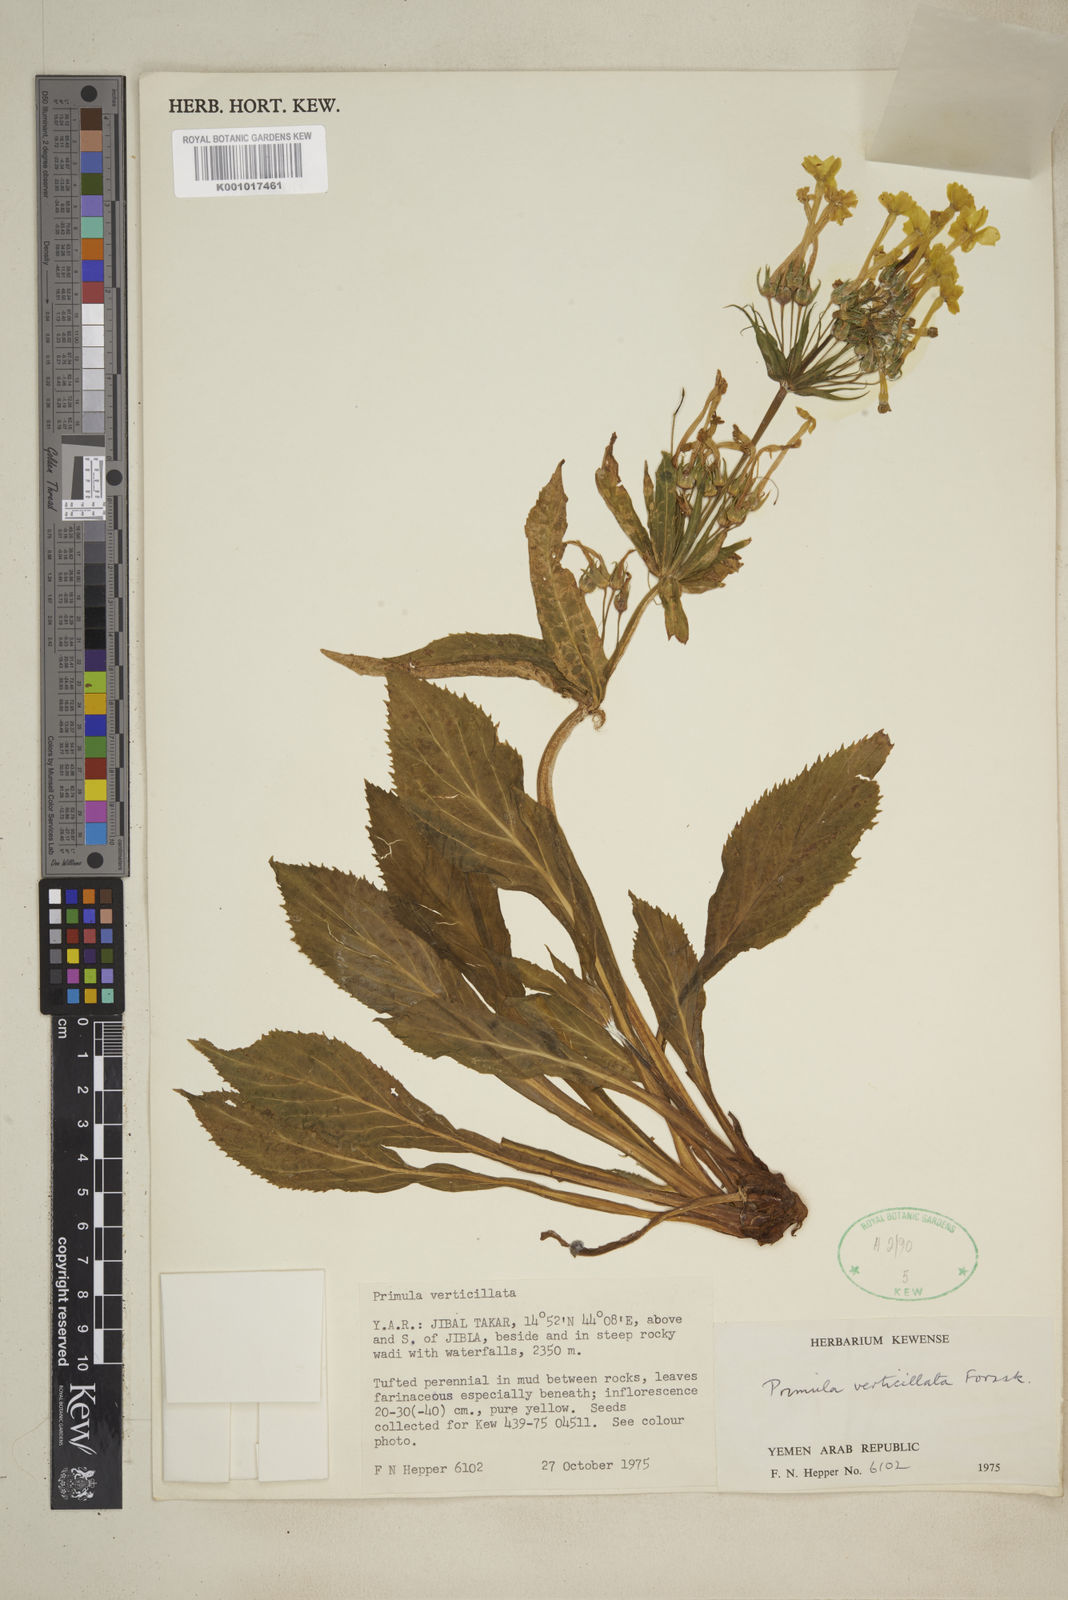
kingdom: Plantae
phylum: Tracheophyta
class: Magnoliopsida
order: Ericales
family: Primulaceae
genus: Evotrochis
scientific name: Evotrochis verticillata
